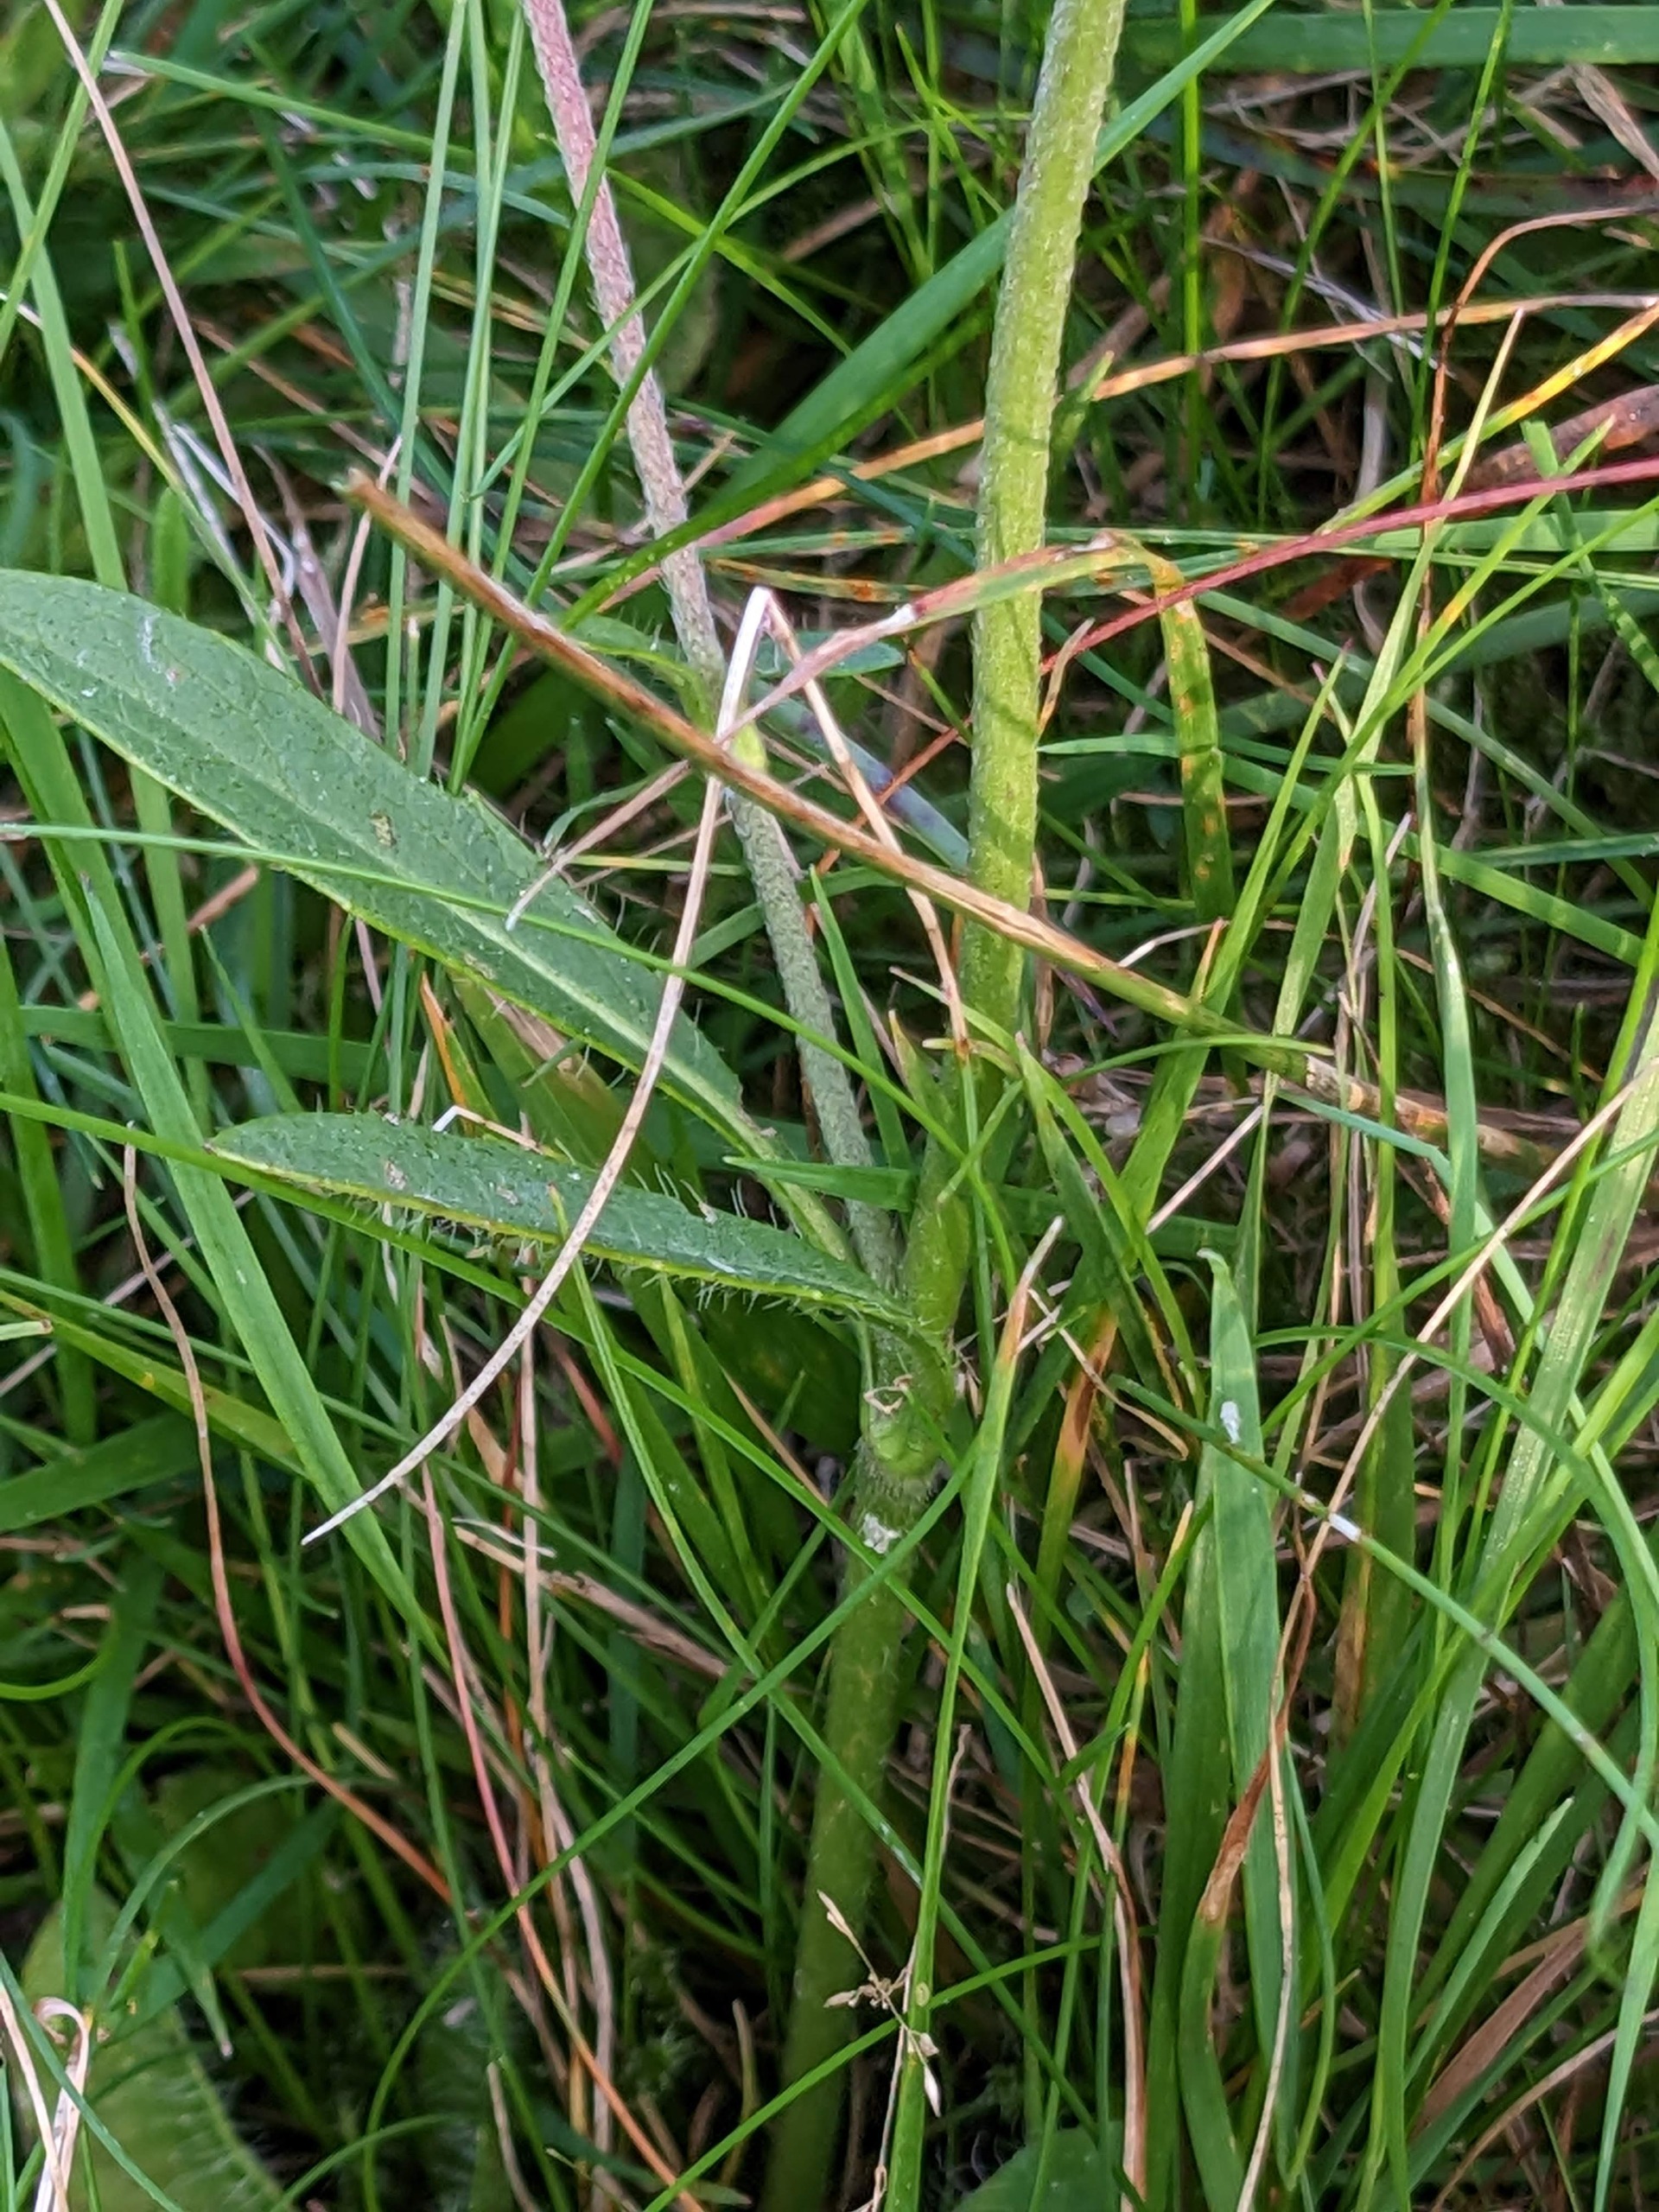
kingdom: Plantae
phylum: Tracheophyta
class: Magnoliopsida
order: Dipsacales
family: Caprifoliaceae
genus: Succisa
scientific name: Succisa pratensis
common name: Djævelsbid
